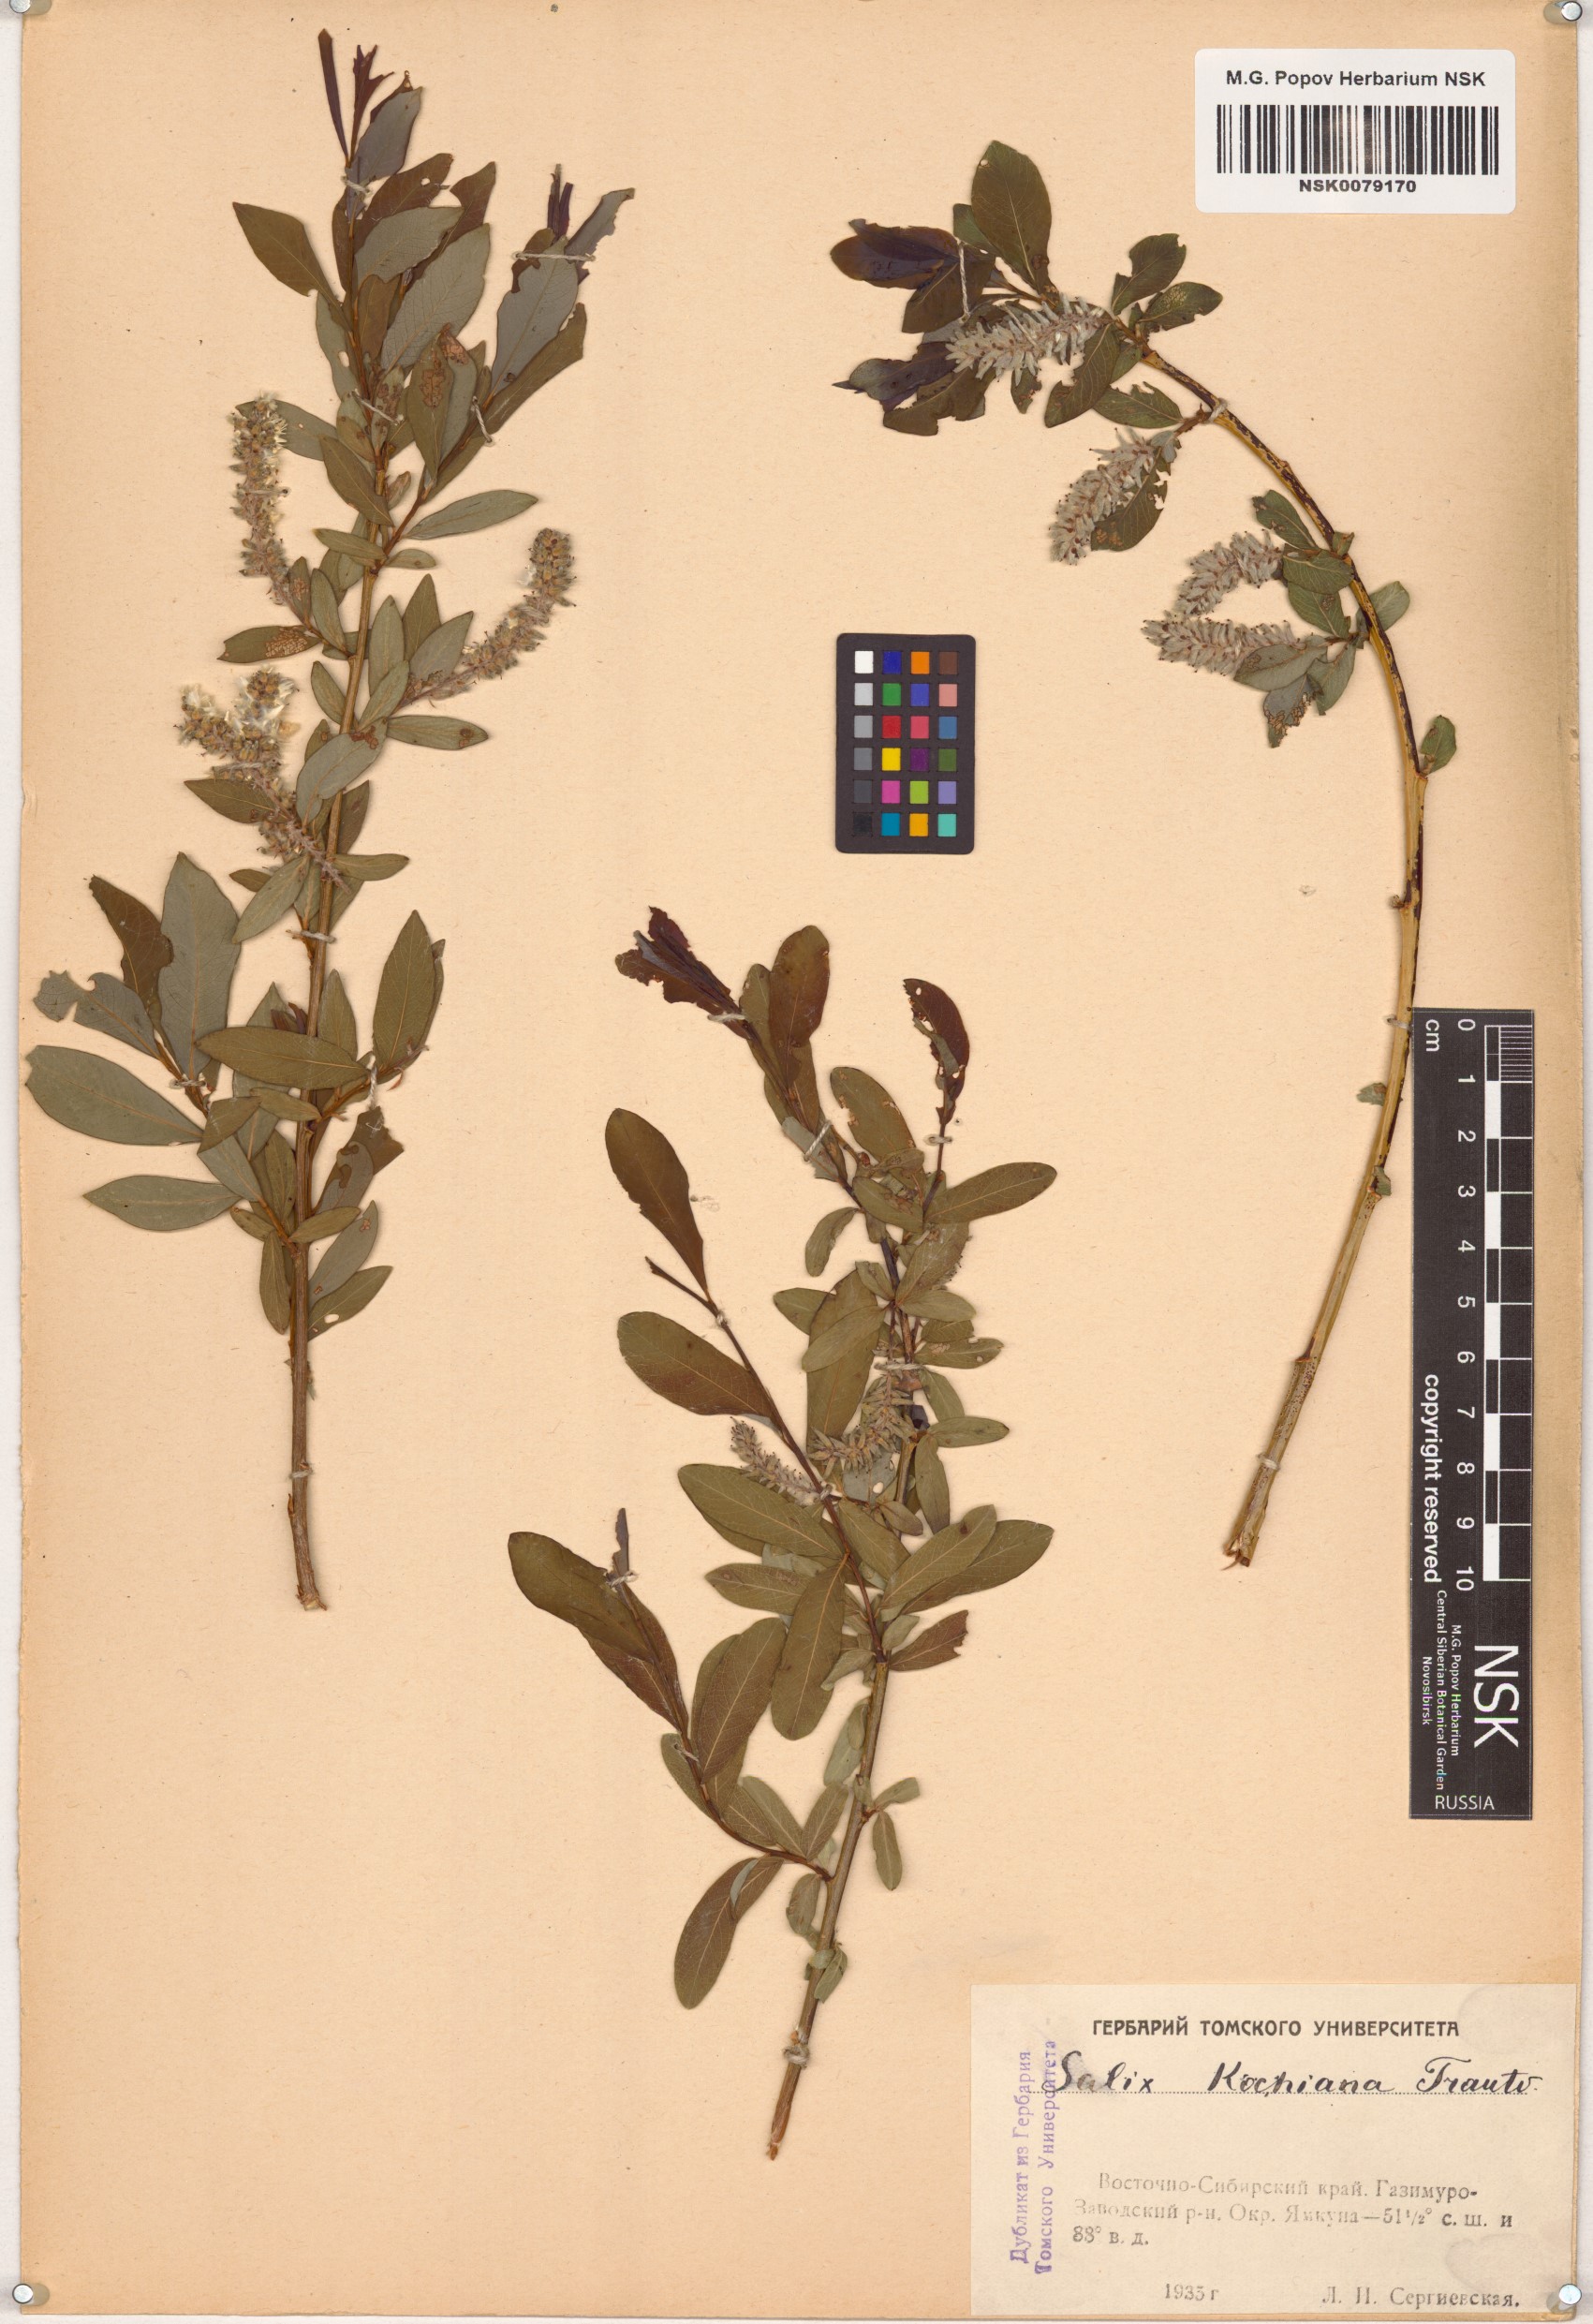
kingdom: Plantae
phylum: Tracheophyta
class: Magnoliopsida
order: Malpighiales
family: Salicaceae
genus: Salix
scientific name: Salix kochiana
